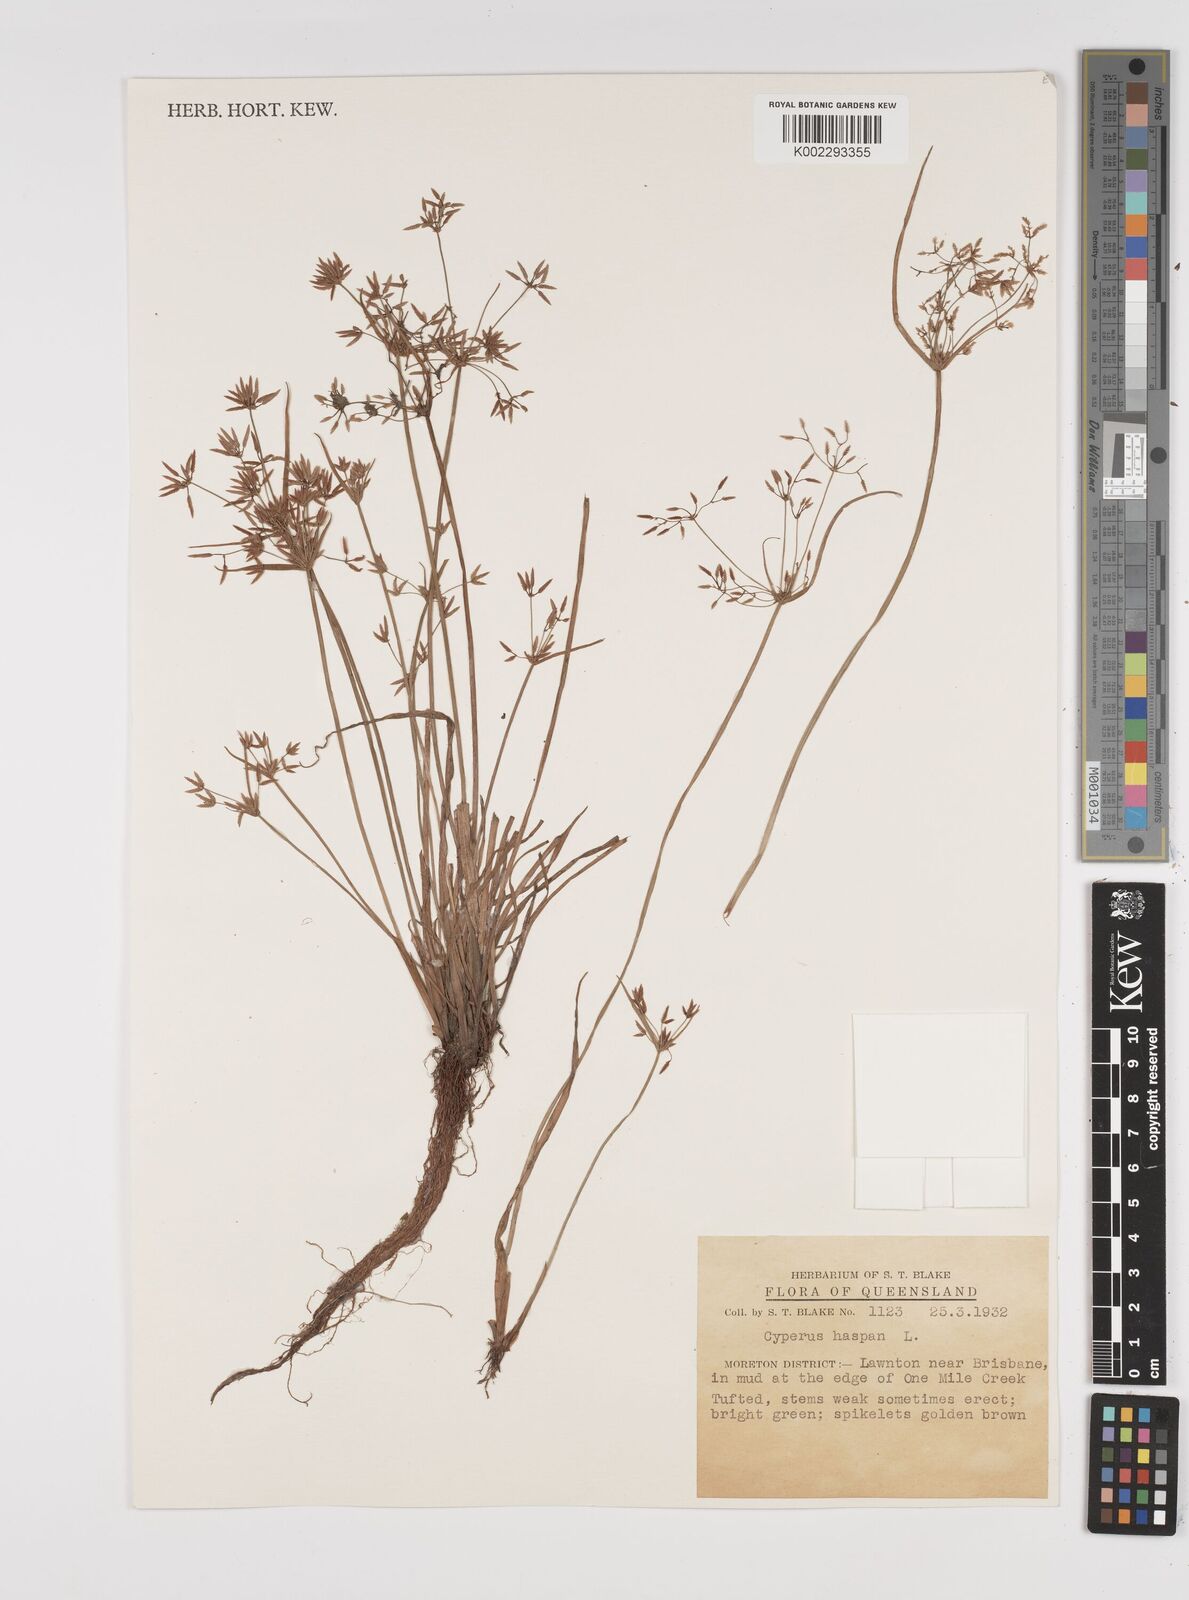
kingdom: Plantae
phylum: Tracheophyta
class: Liliopsida
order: Poales
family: Cyperaceae
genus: Cyperus
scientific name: Cyperus haspan
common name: Haspan flatsedge
